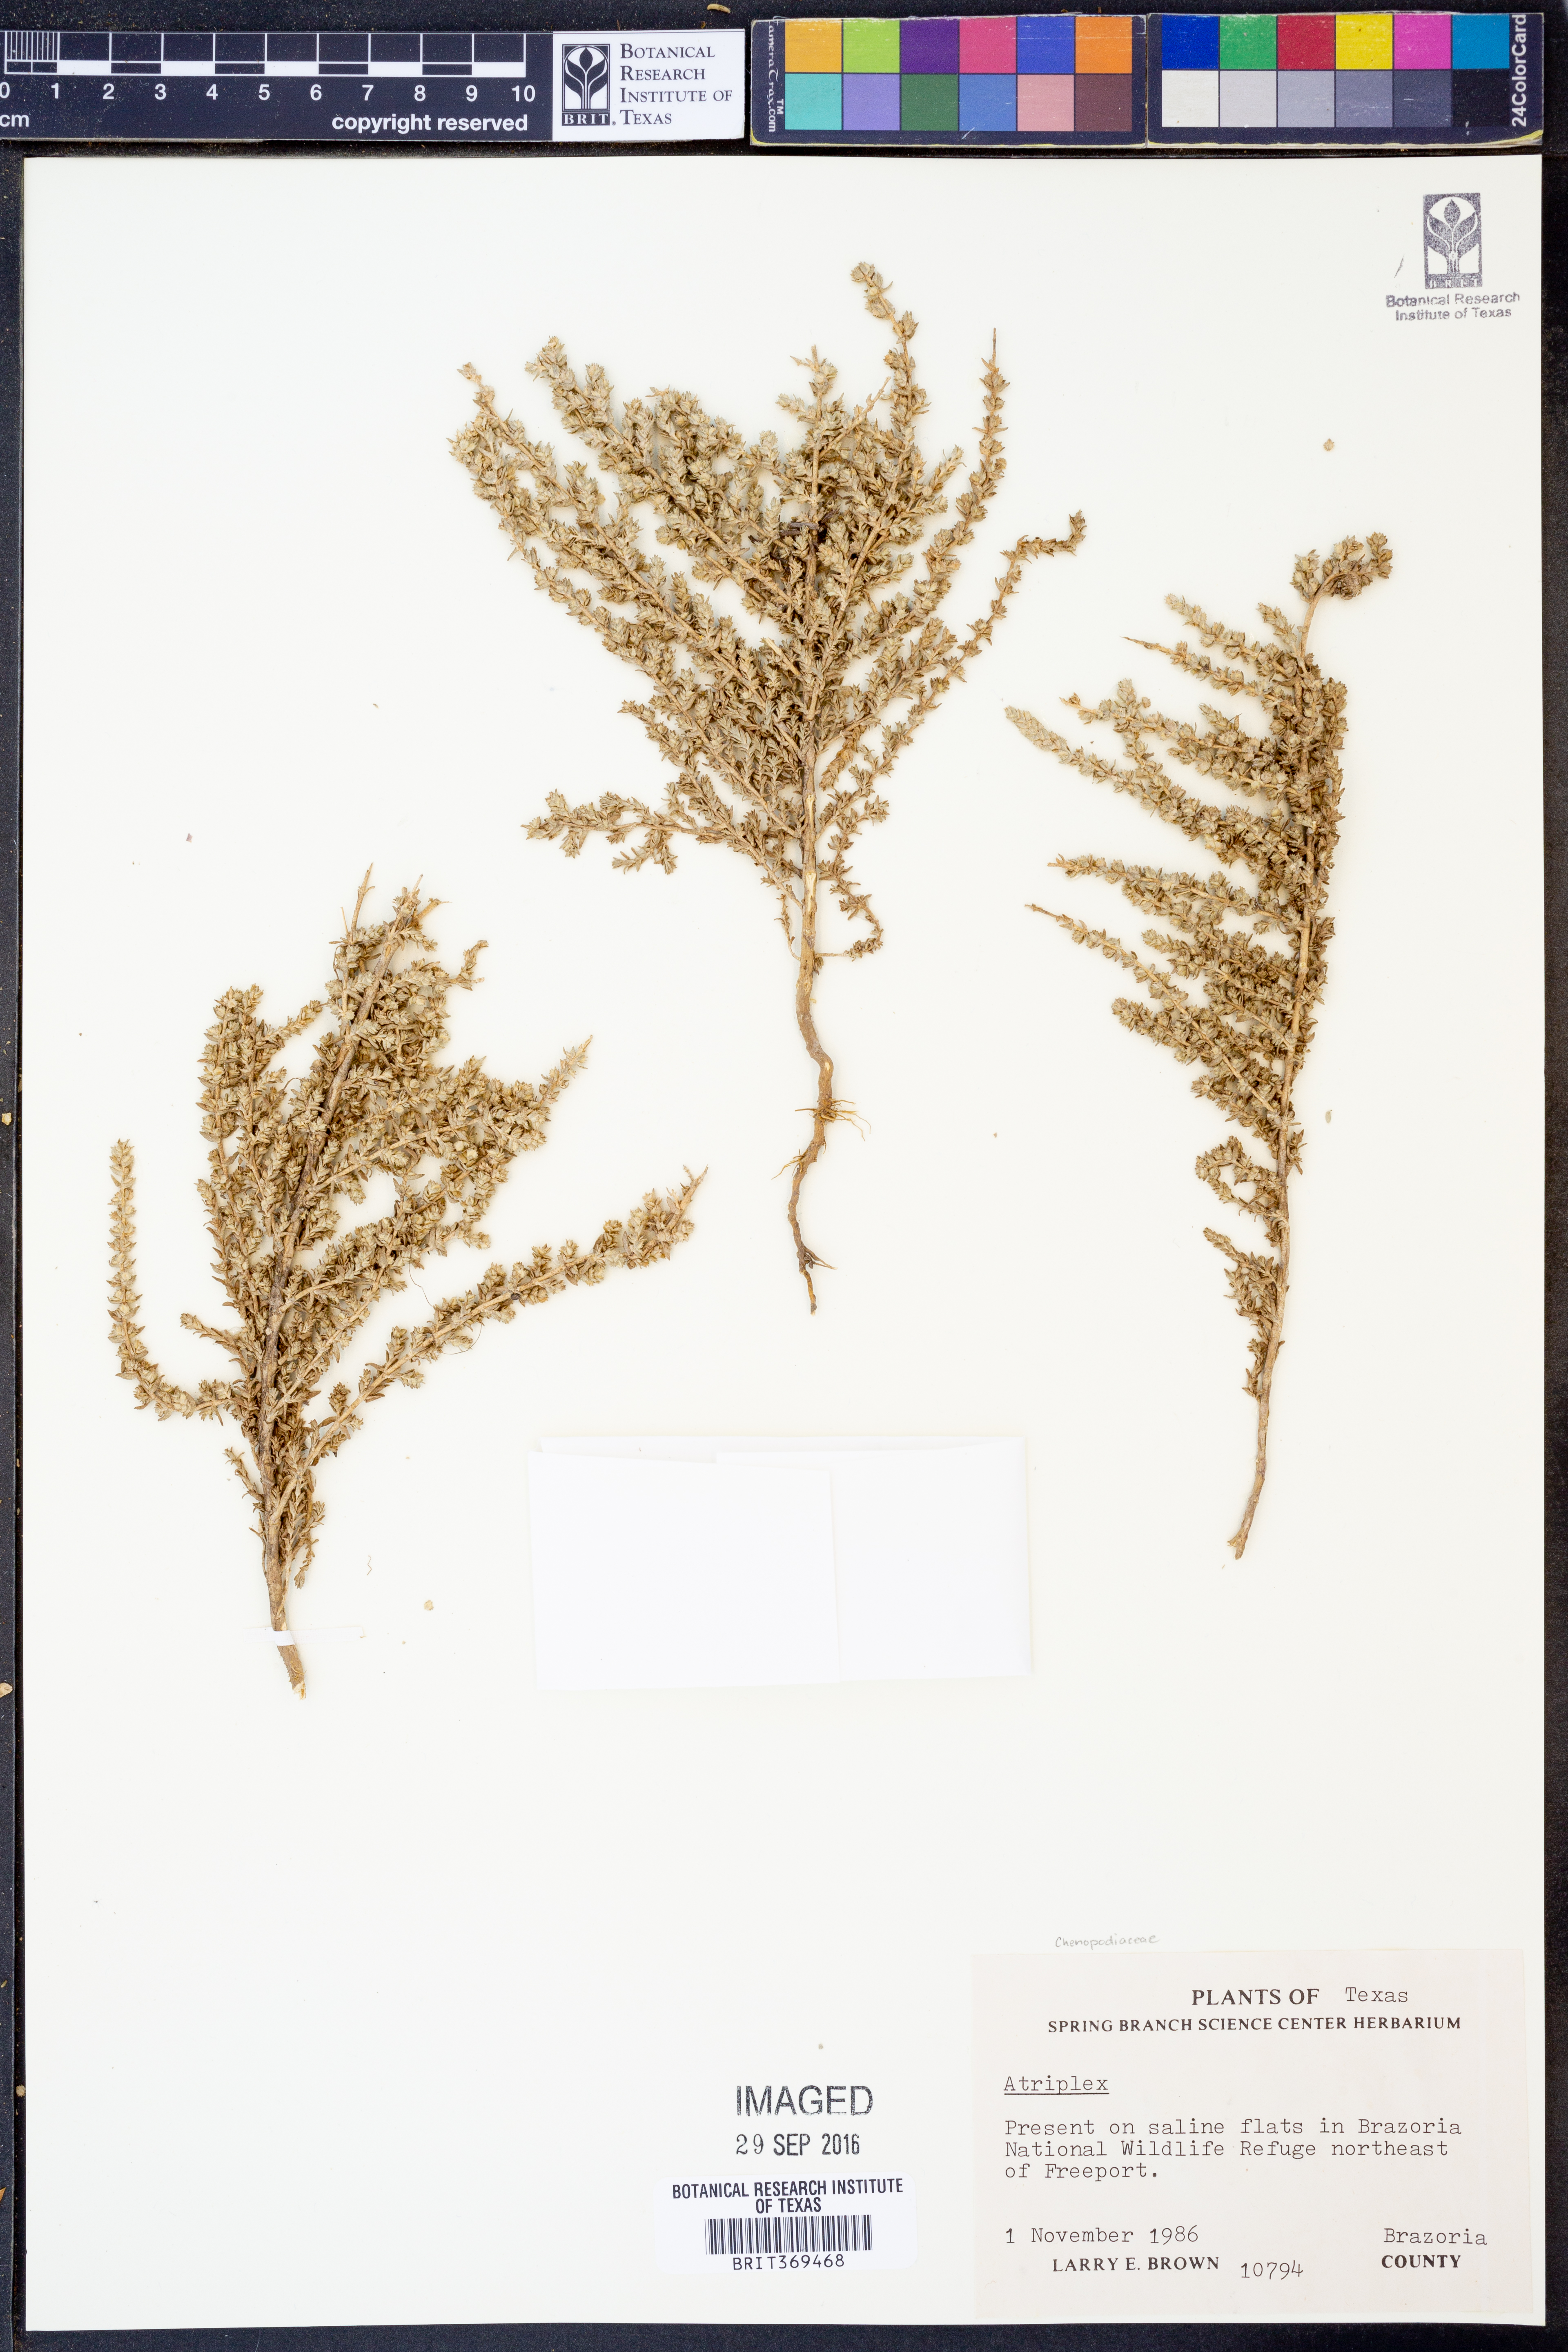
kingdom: Plantae
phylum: Tracheophyta
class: Magnoliopsida
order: Caryophyllales
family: Amaranthaceae
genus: Atriplex
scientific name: Atriplex
